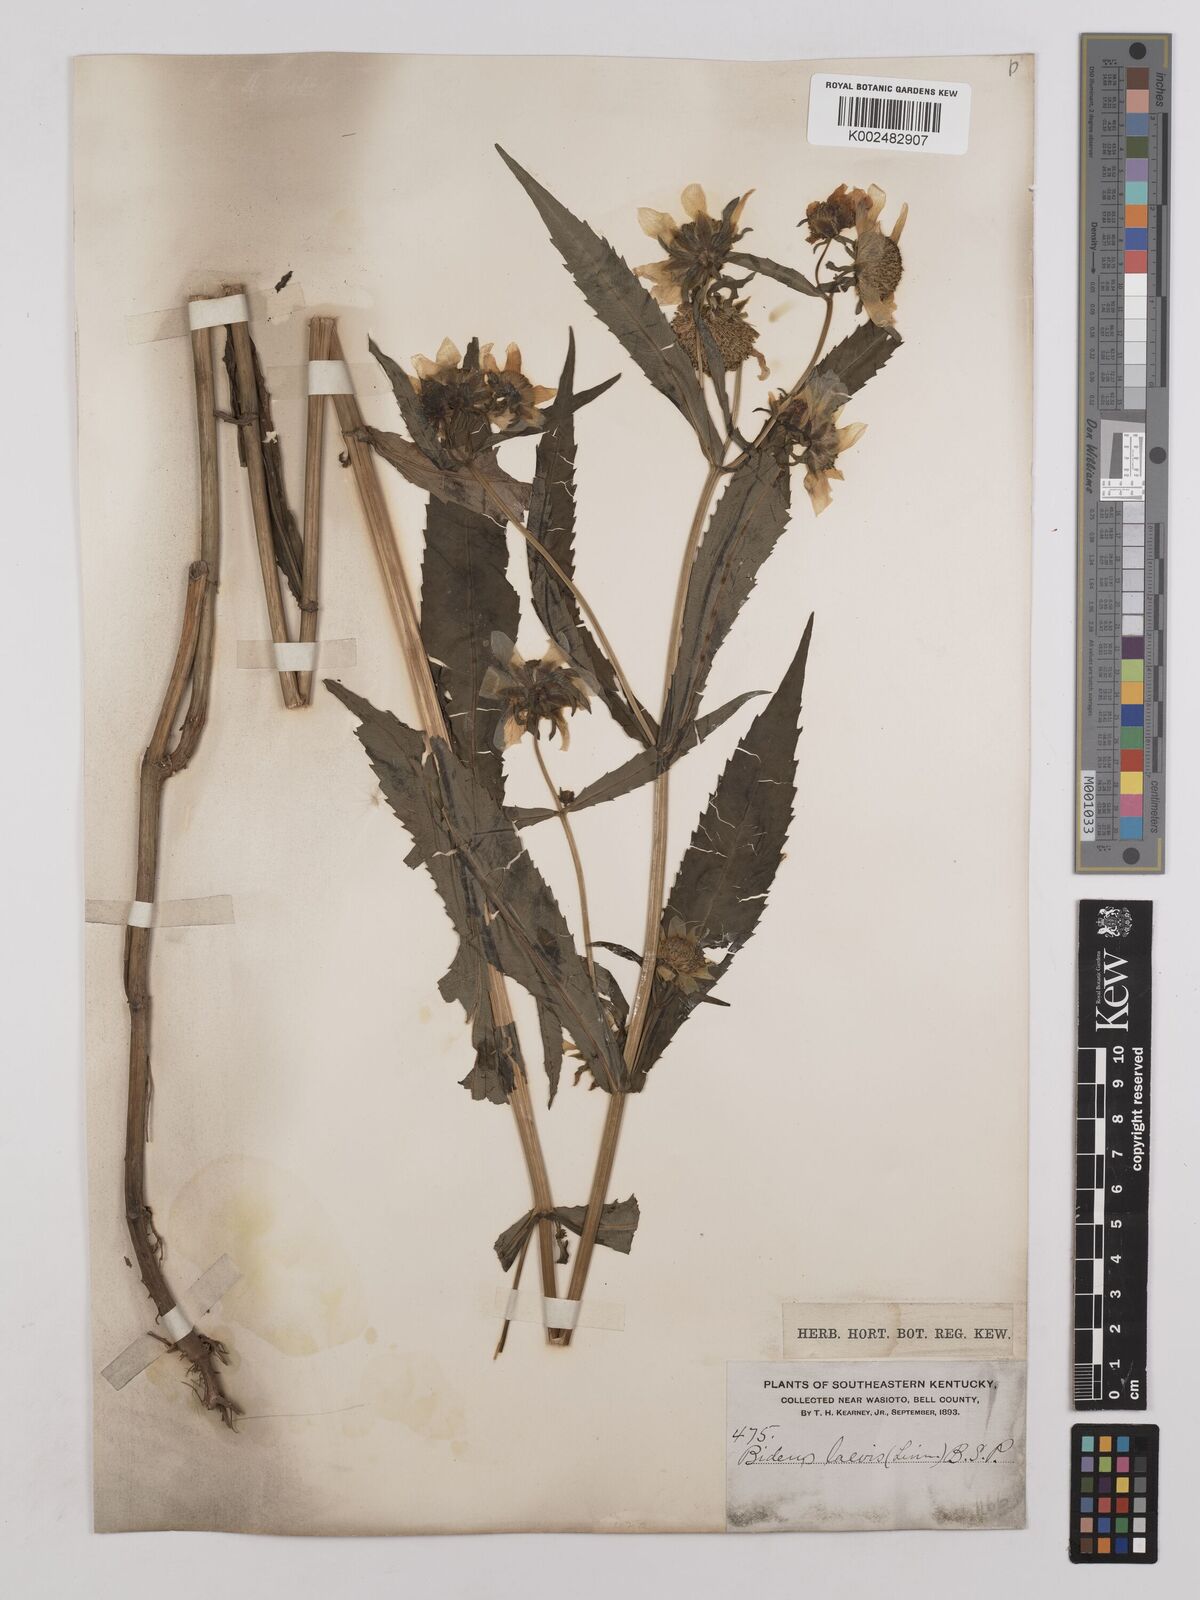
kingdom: Plantae
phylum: Tracheophyta
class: Magnoliopsida
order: Asterales
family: Asteraceae
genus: Bidens
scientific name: Bidens
